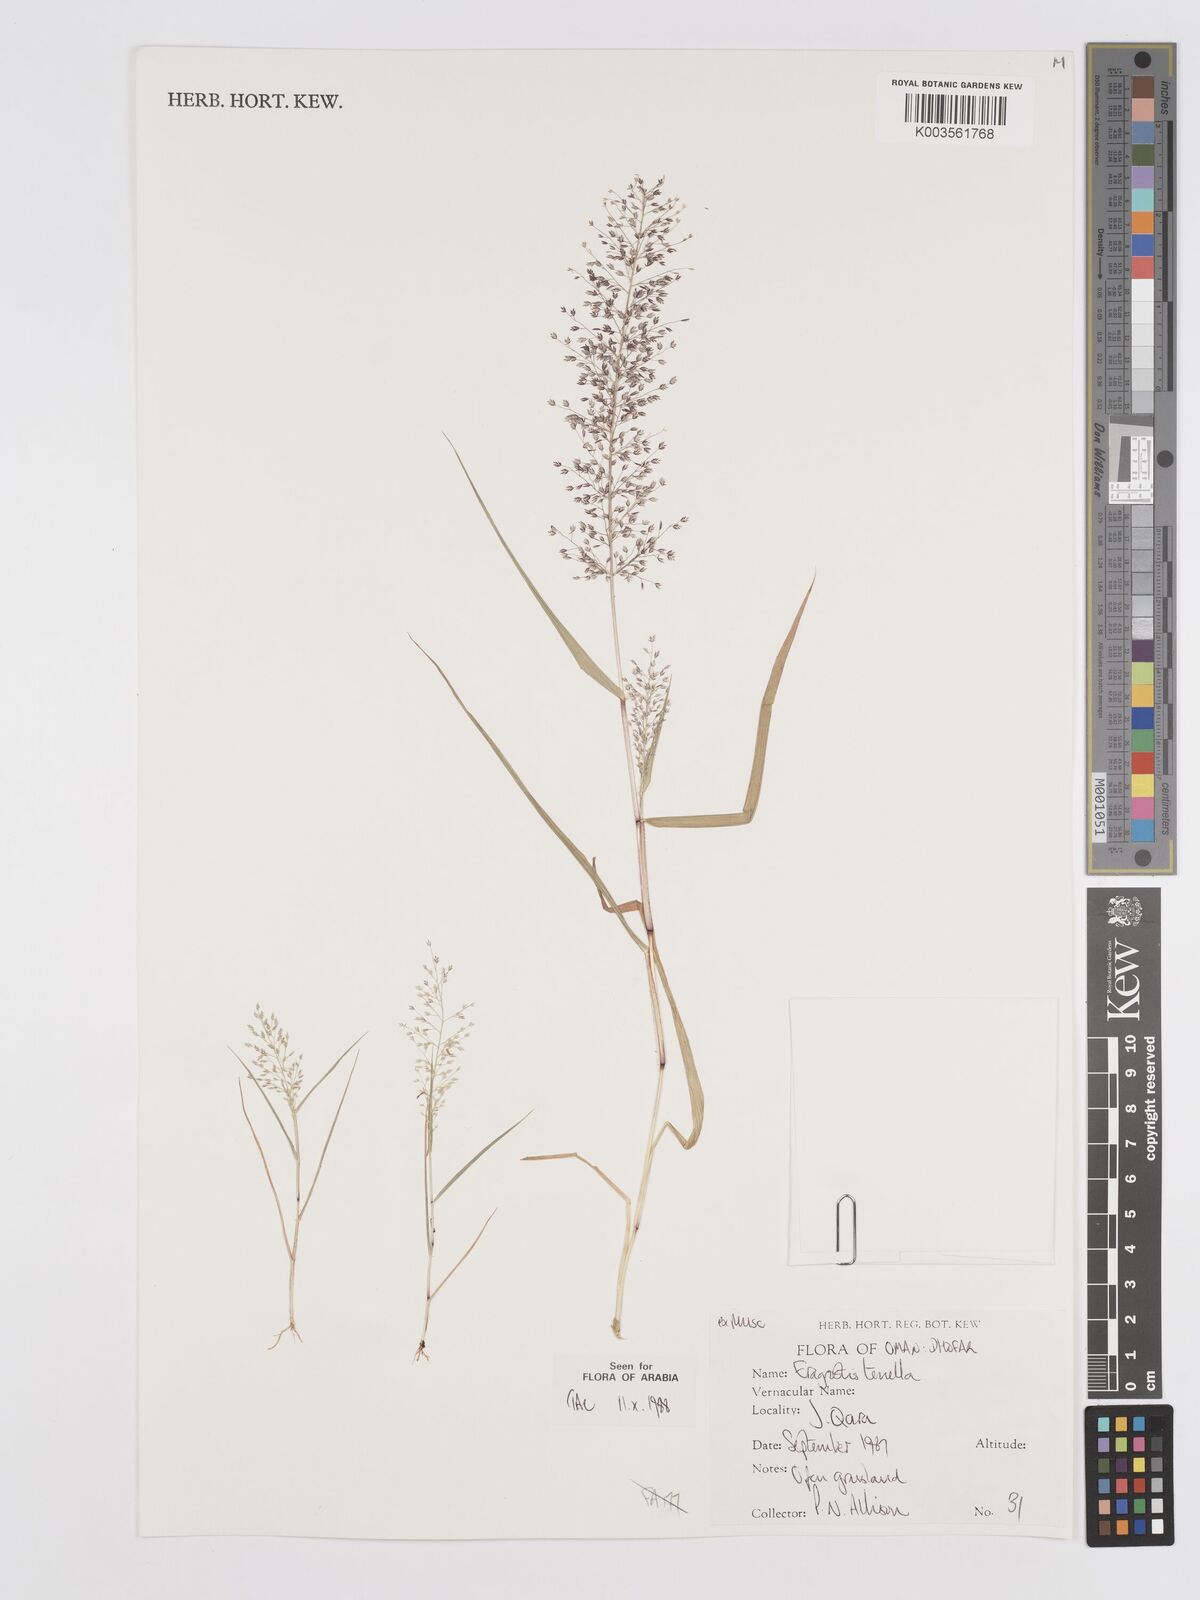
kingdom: Plantae
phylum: Tracheophyta
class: Liliopsida
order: Poales
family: Poaceae
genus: Eragrostis
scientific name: Eragrostis tenella
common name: Japanese lovegrass
